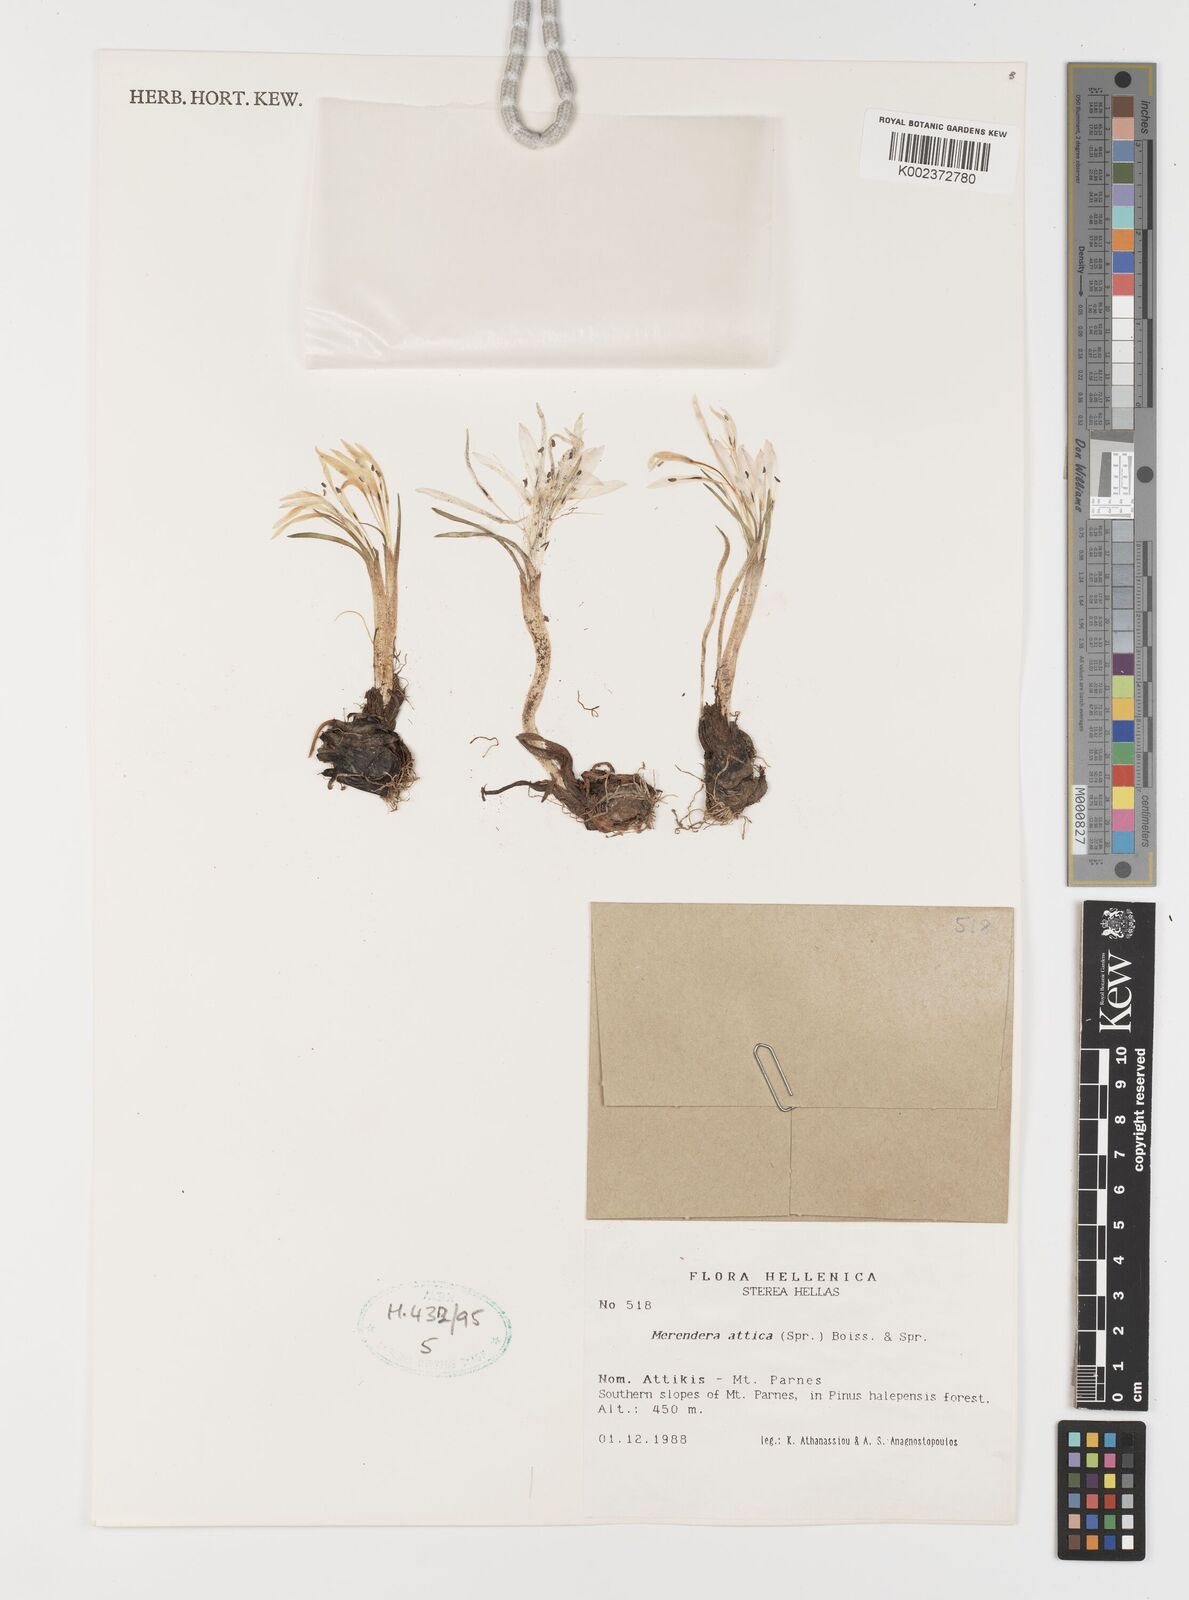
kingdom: Plantae
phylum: Tracheophyta
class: Liliopsida
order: Liliales
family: Colchicaceae
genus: Colchicum
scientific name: Colchicum atticum
